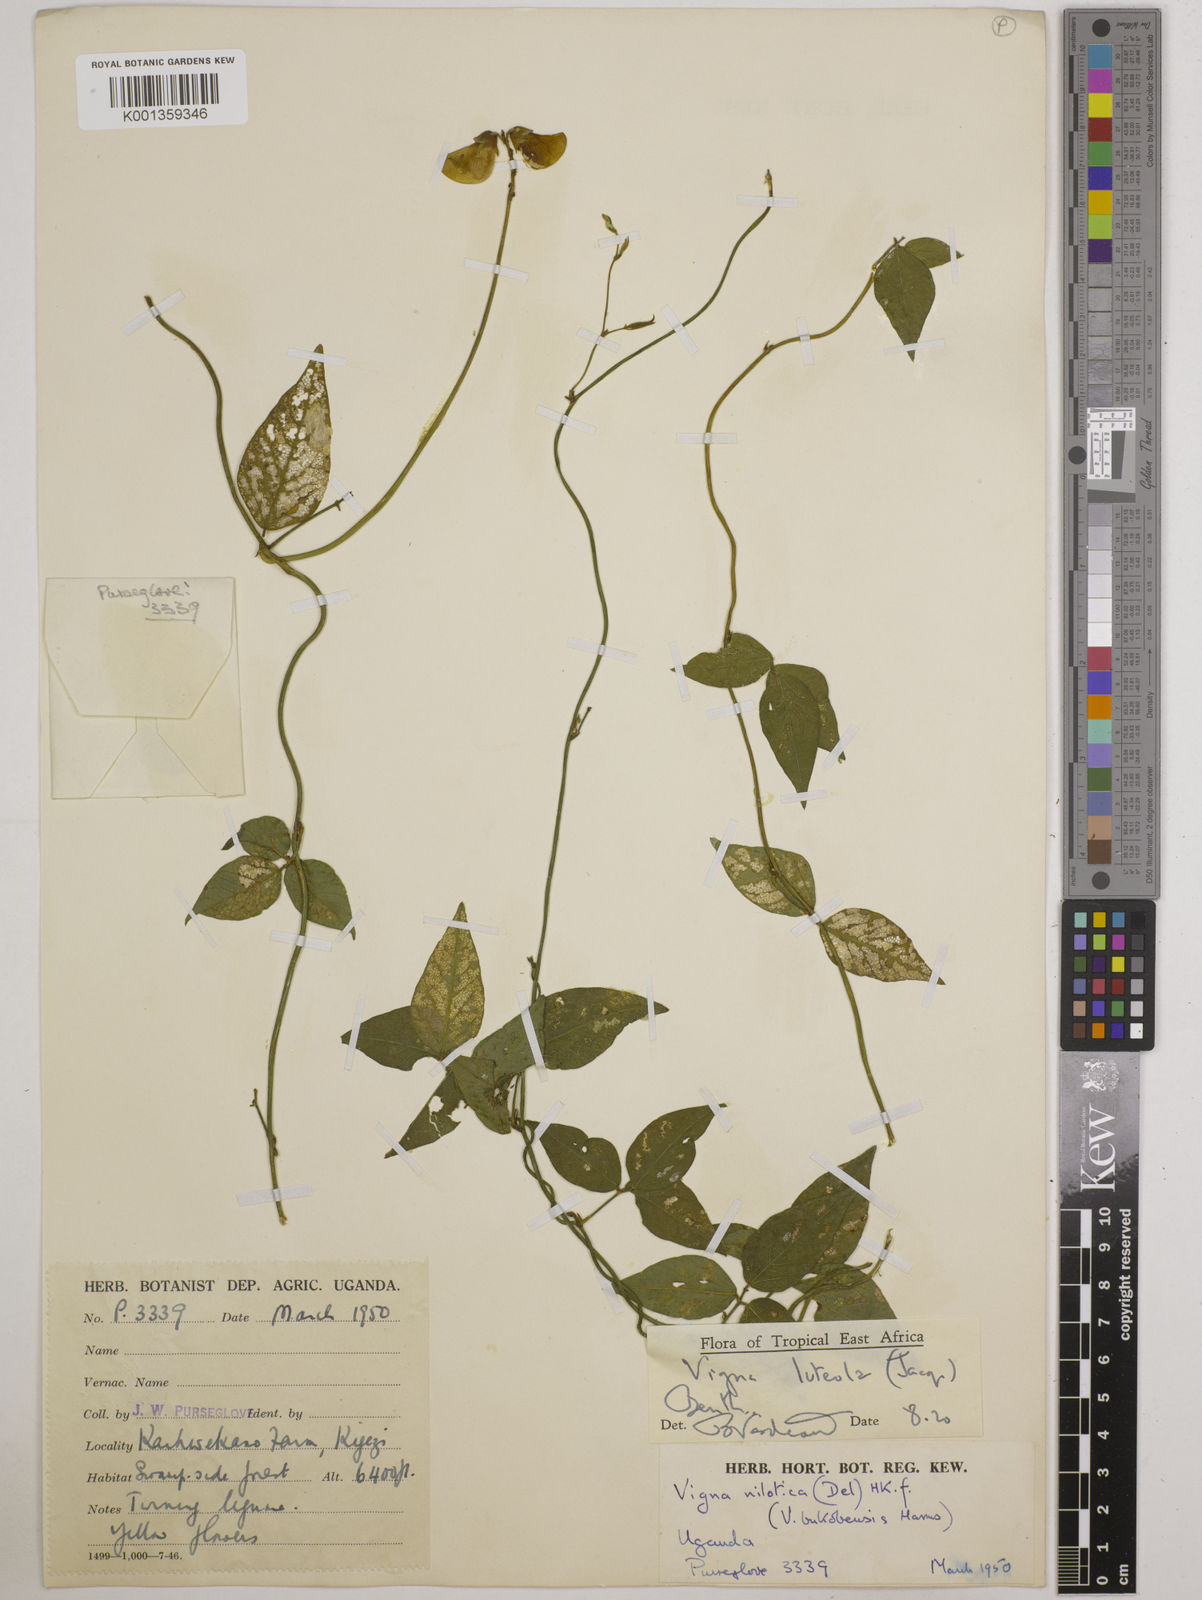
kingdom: Plantae
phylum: Tracheophyta
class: Magnoliopsida
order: Fabales
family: Fabaceae
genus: Vigna
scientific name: Vigna luteola
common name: Hairypod cowpea
